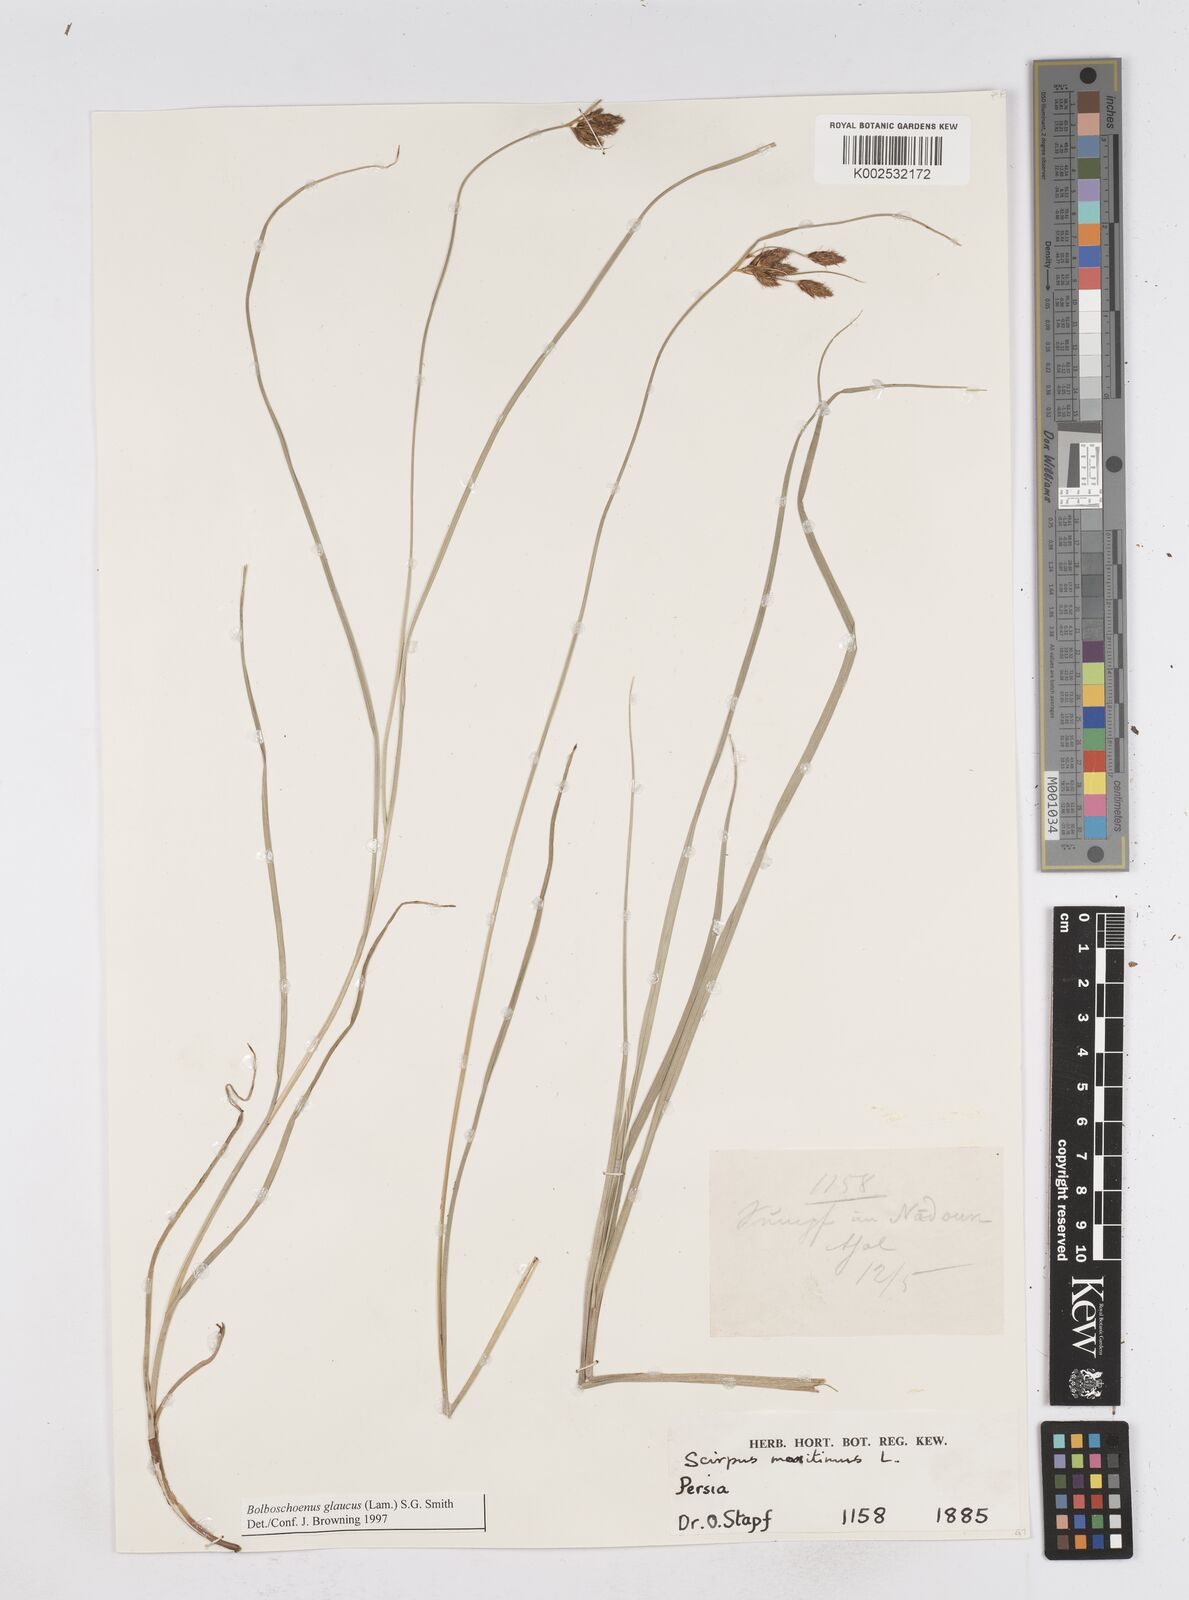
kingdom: Plantae
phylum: Tracheophyta
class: Liliopsida
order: Poales
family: Cyperaceae
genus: Bolboschoenus
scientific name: Bolboschoenus maritimus
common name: Sea club-rush
